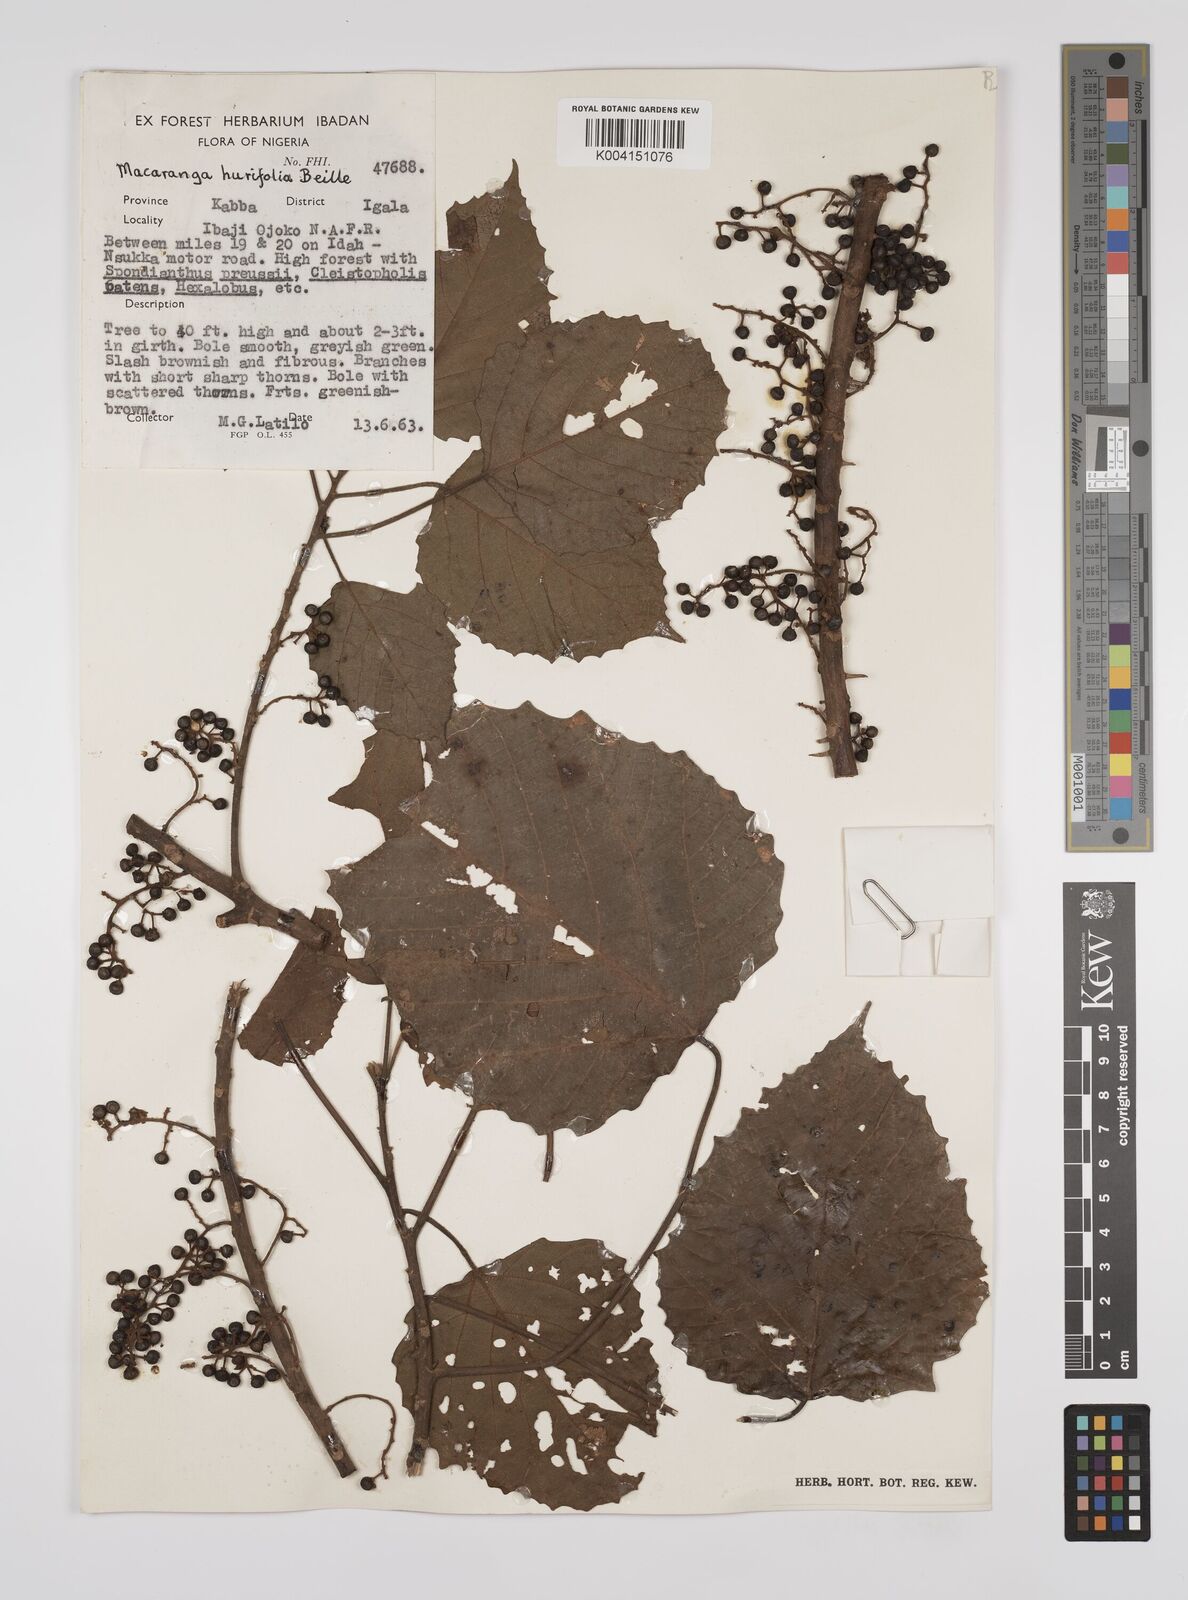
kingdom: Plantae
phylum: Tracheophyta
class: Magnoliopsida
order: Malpighiales
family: Euphorbiaceae
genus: Macaranga
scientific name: Macaranga hurifolia
